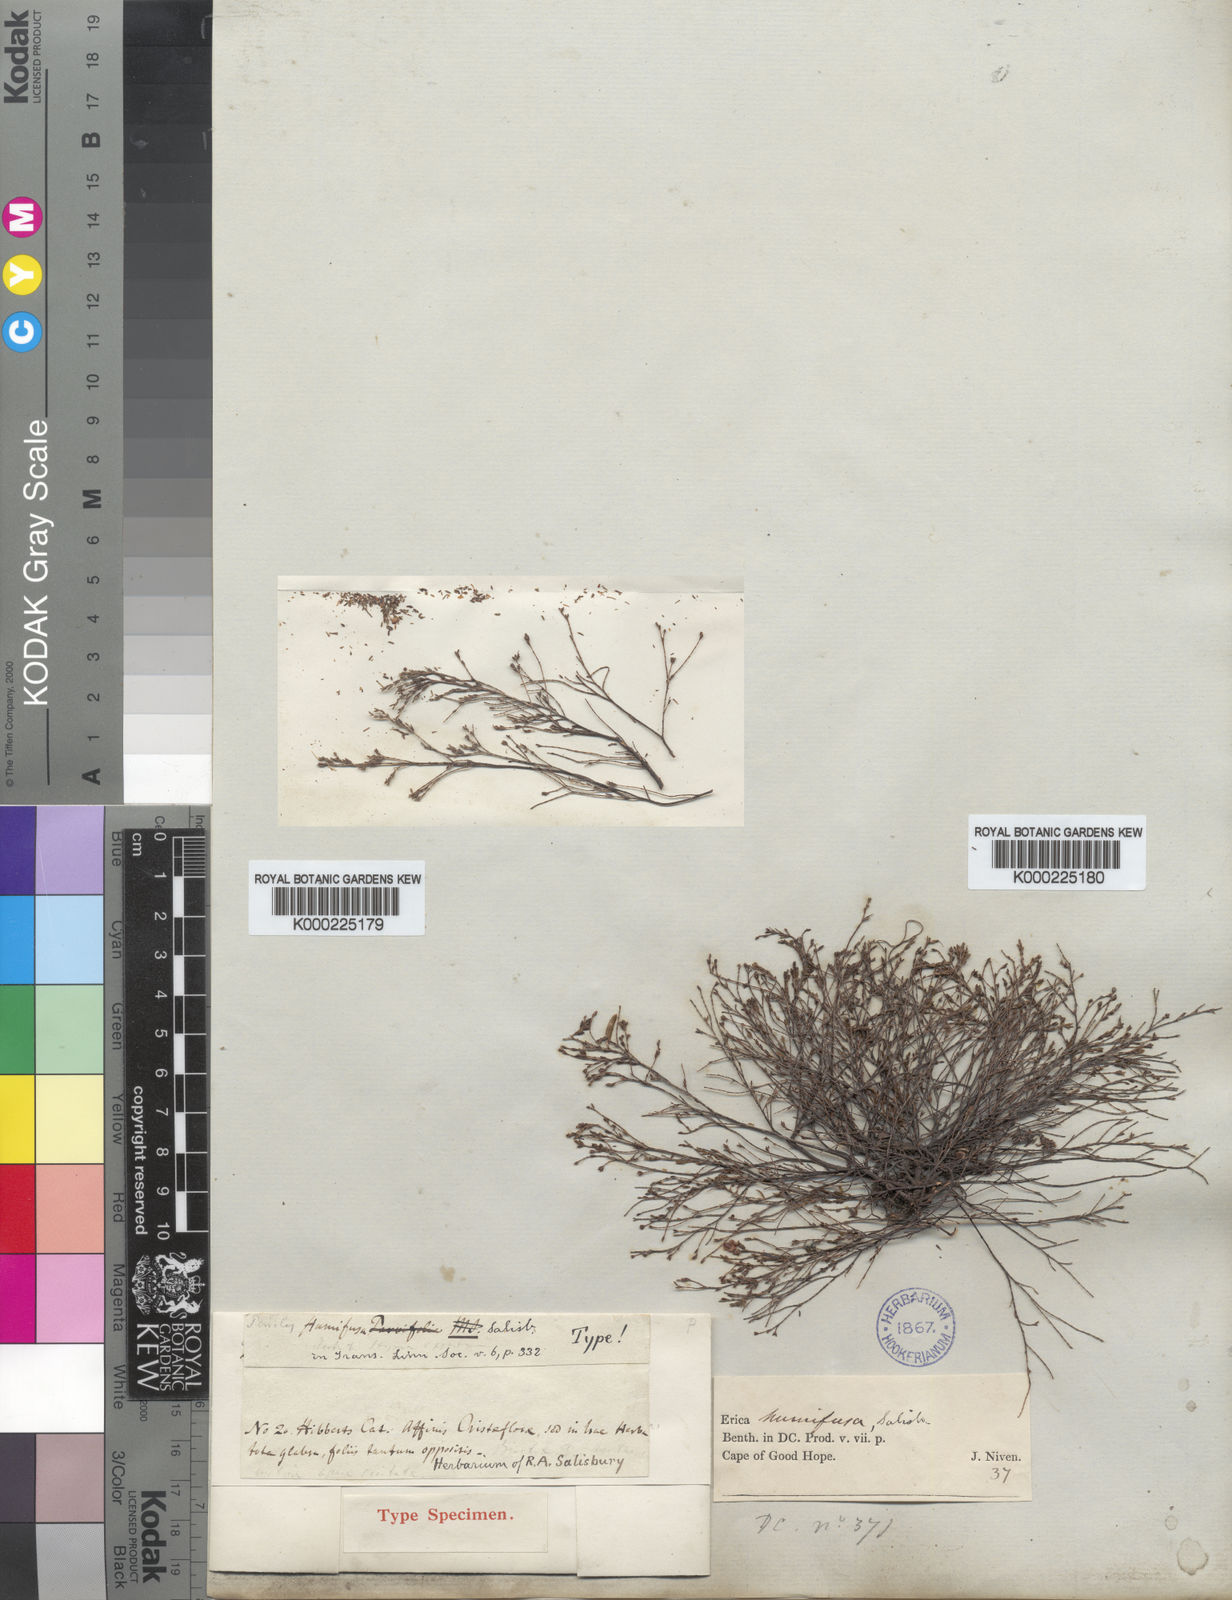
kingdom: Plantae
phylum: Tracheophyta
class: Magnoliopsida
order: Ericales
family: Ericaceae
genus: Erica
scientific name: Erica humifusa
